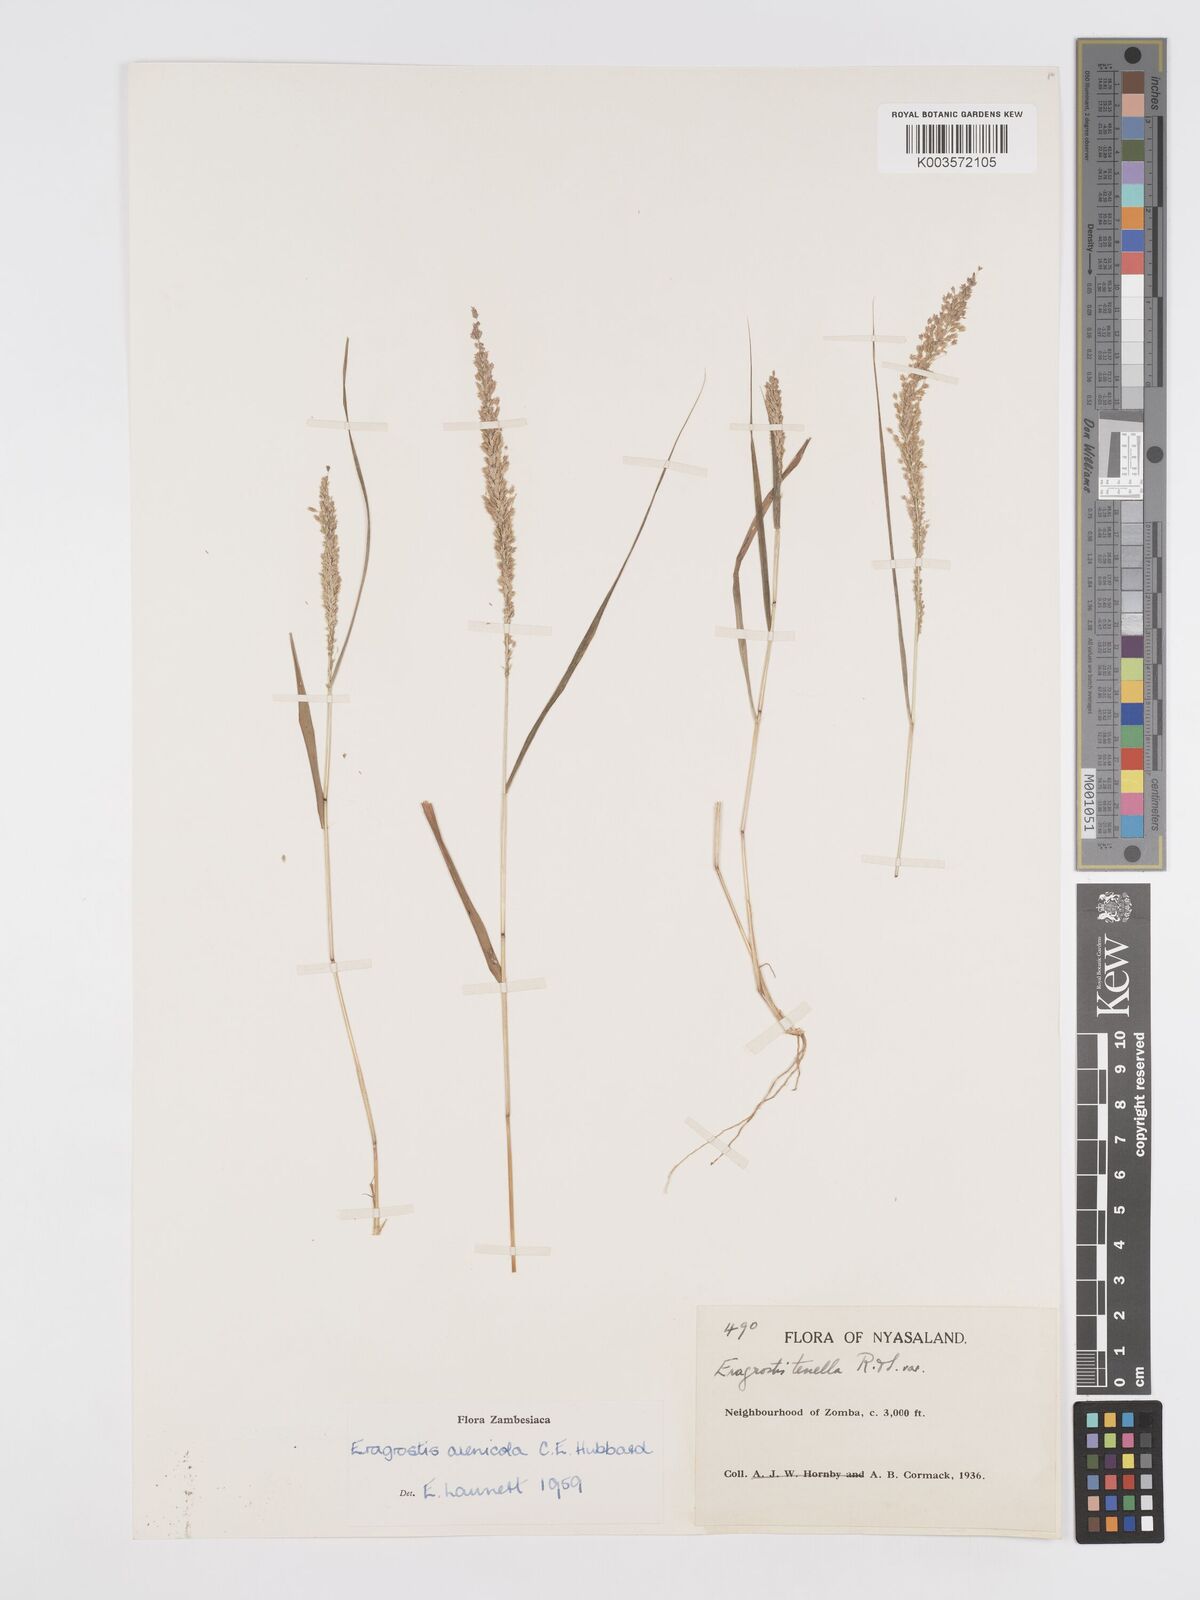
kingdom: Plantae
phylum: Tracheophyta
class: Liliopsida
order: Poales
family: Poaceae
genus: Eragrostis
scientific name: Eragrostis arenicola
